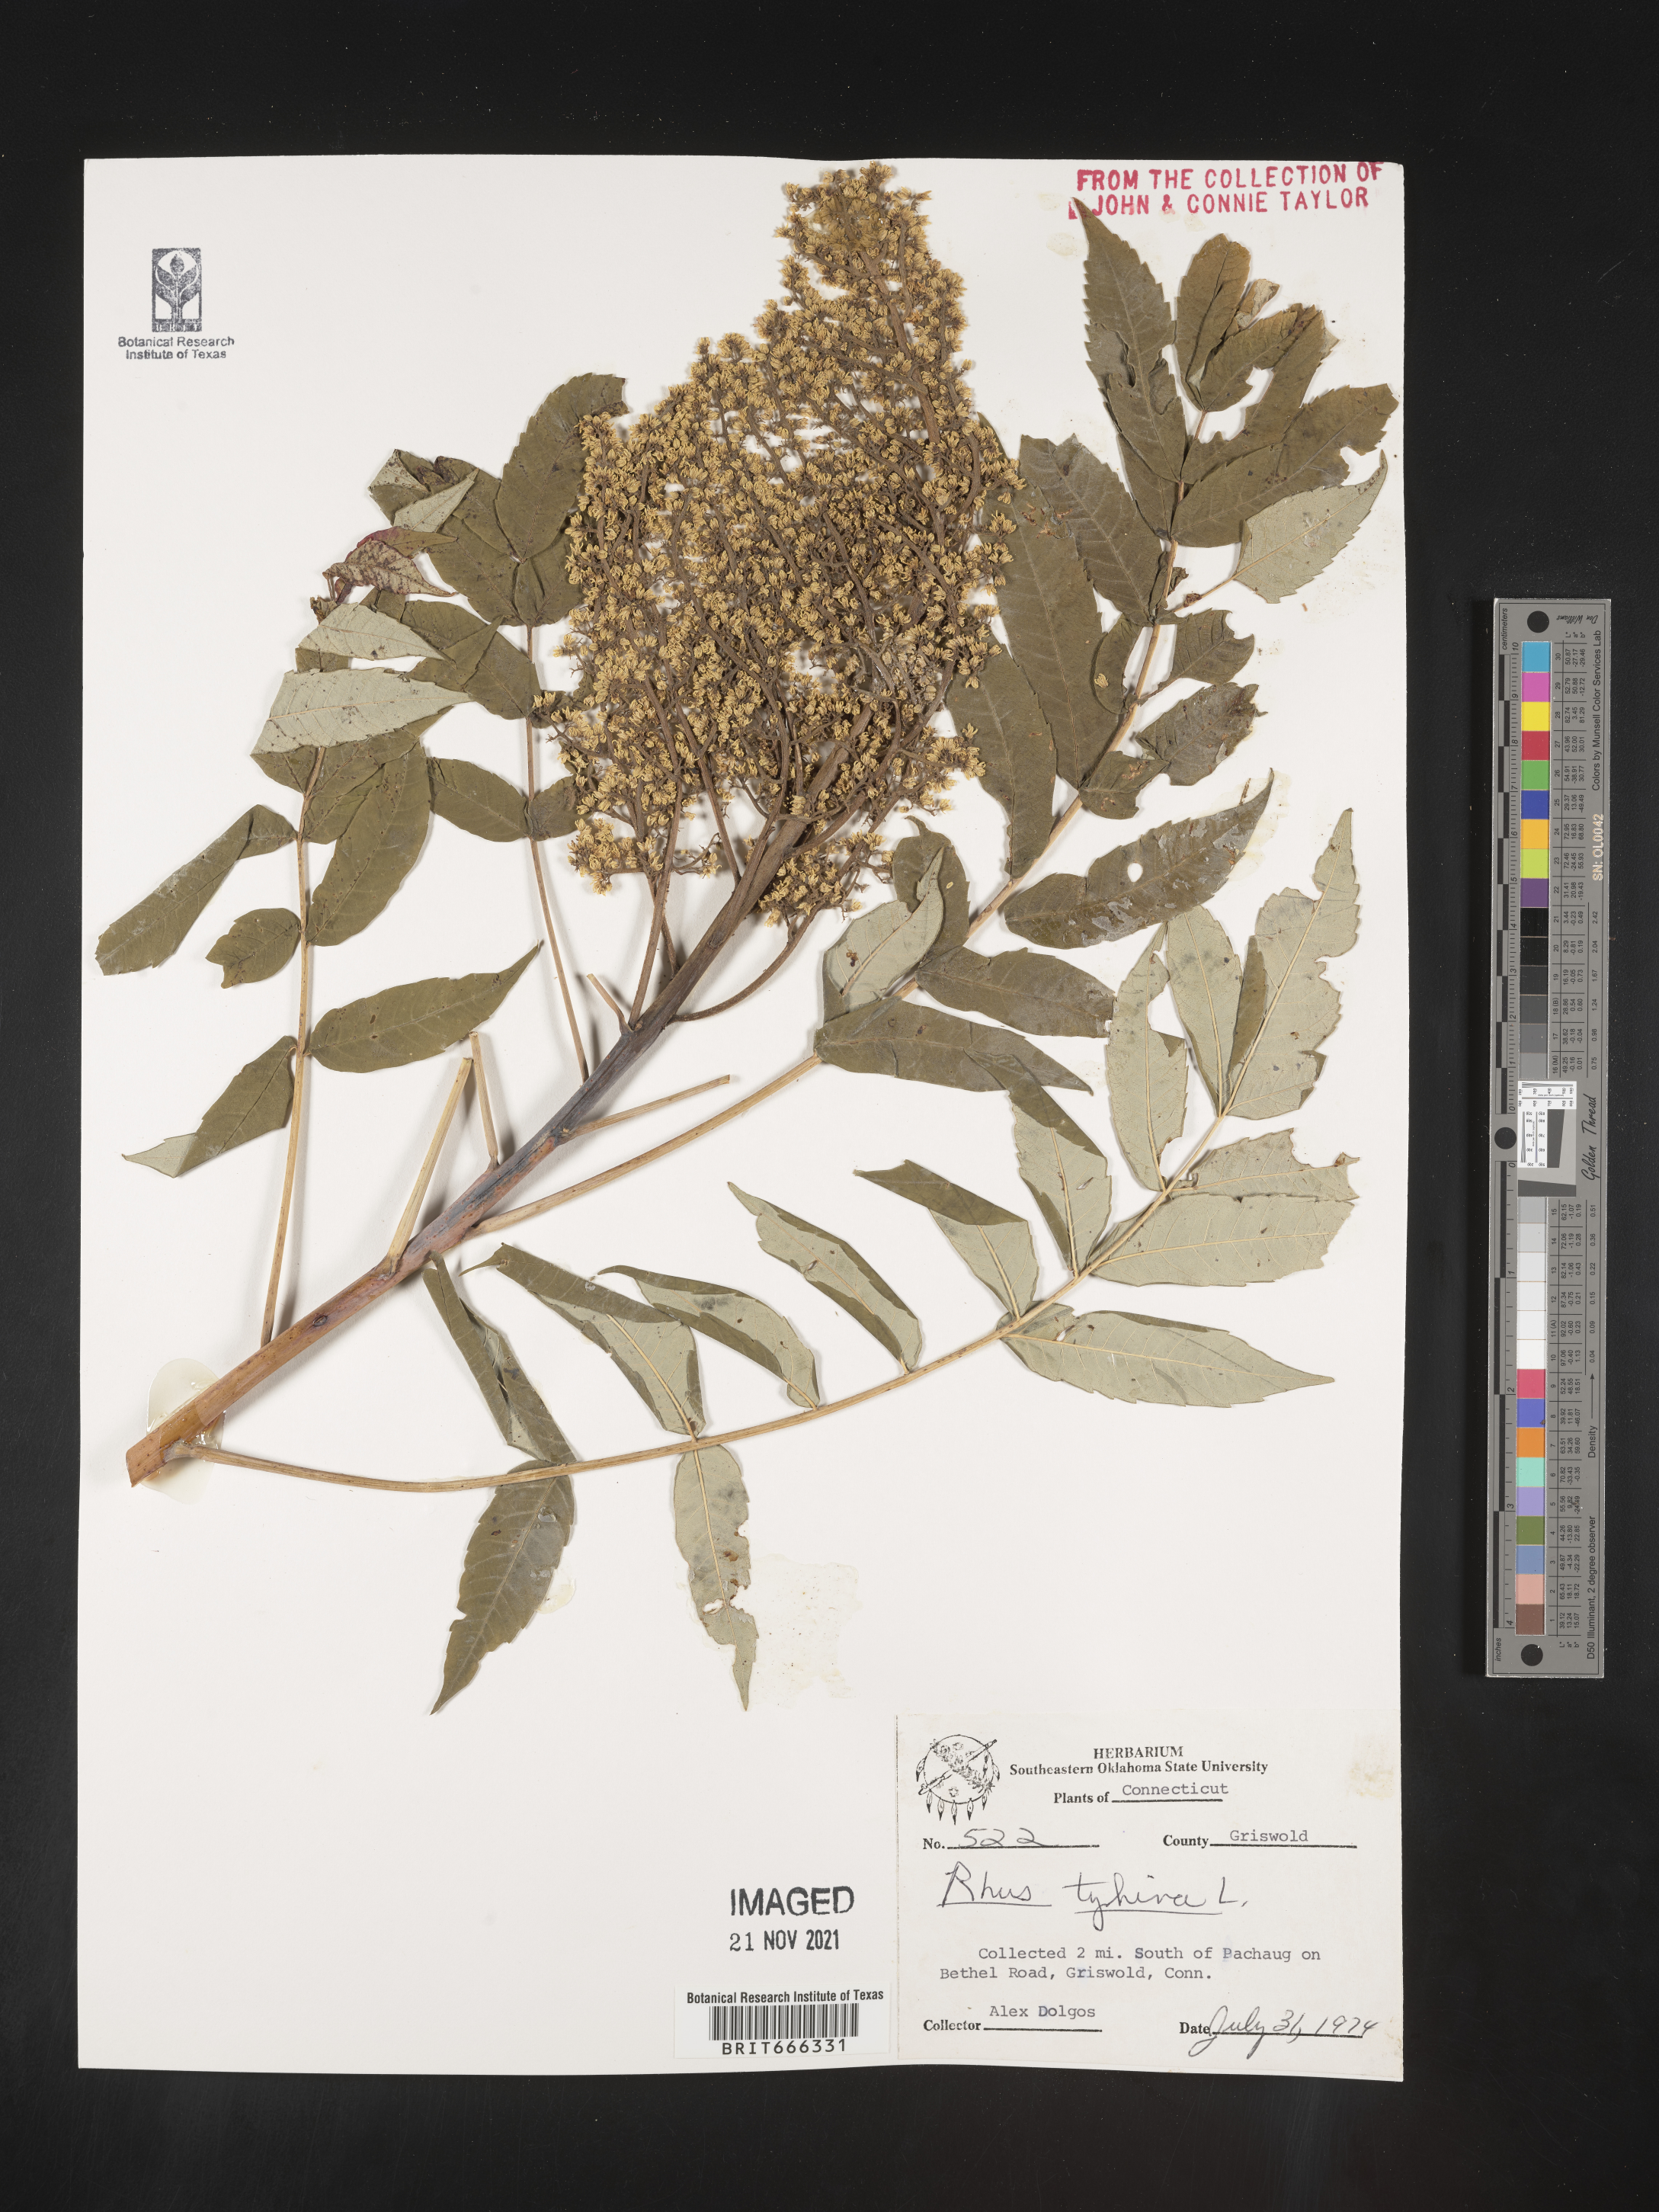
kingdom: Plantae
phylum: Tracheophyta
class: Magnoliopsida
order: Sapindales
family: Anacardiaceae
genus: Rhus
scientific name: Rhus typhina
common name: Staghorn sumac
